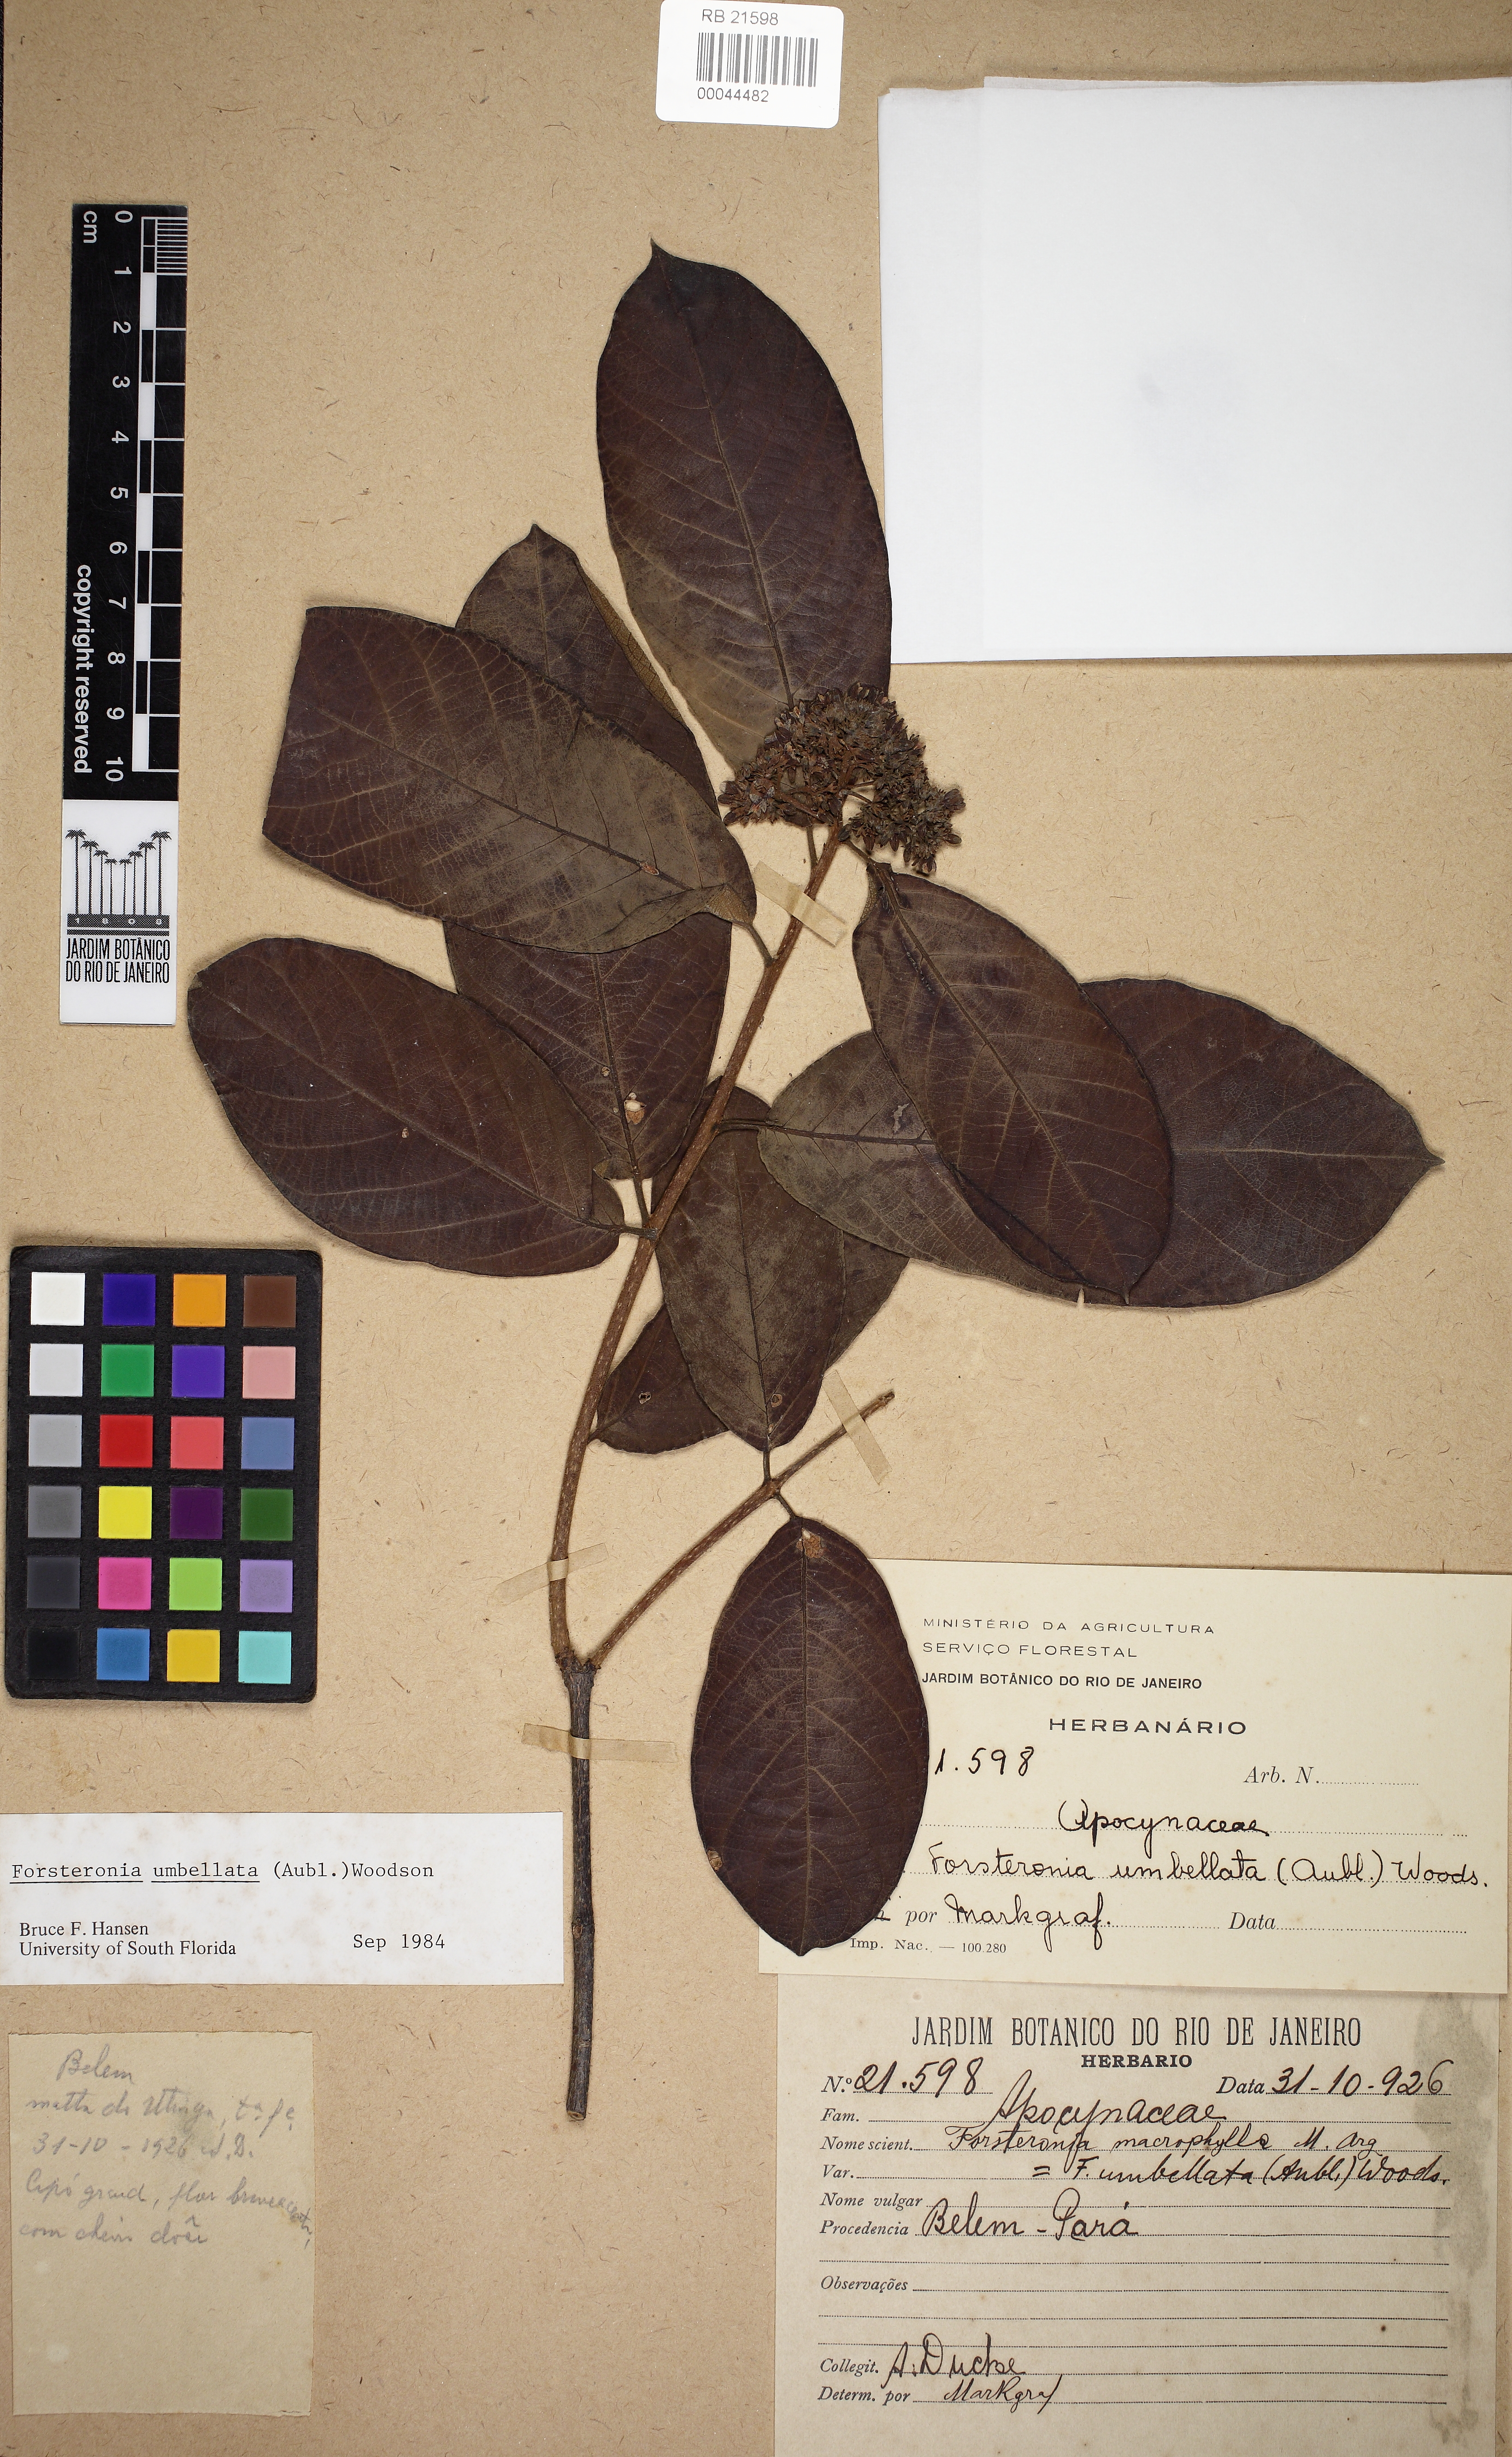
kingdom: Plantae
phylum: Tracheophyta
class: Magnoliopsida
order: Gentianales
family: Apocynaceae
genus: Forsteronia
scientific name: Forsteronia umbellata
